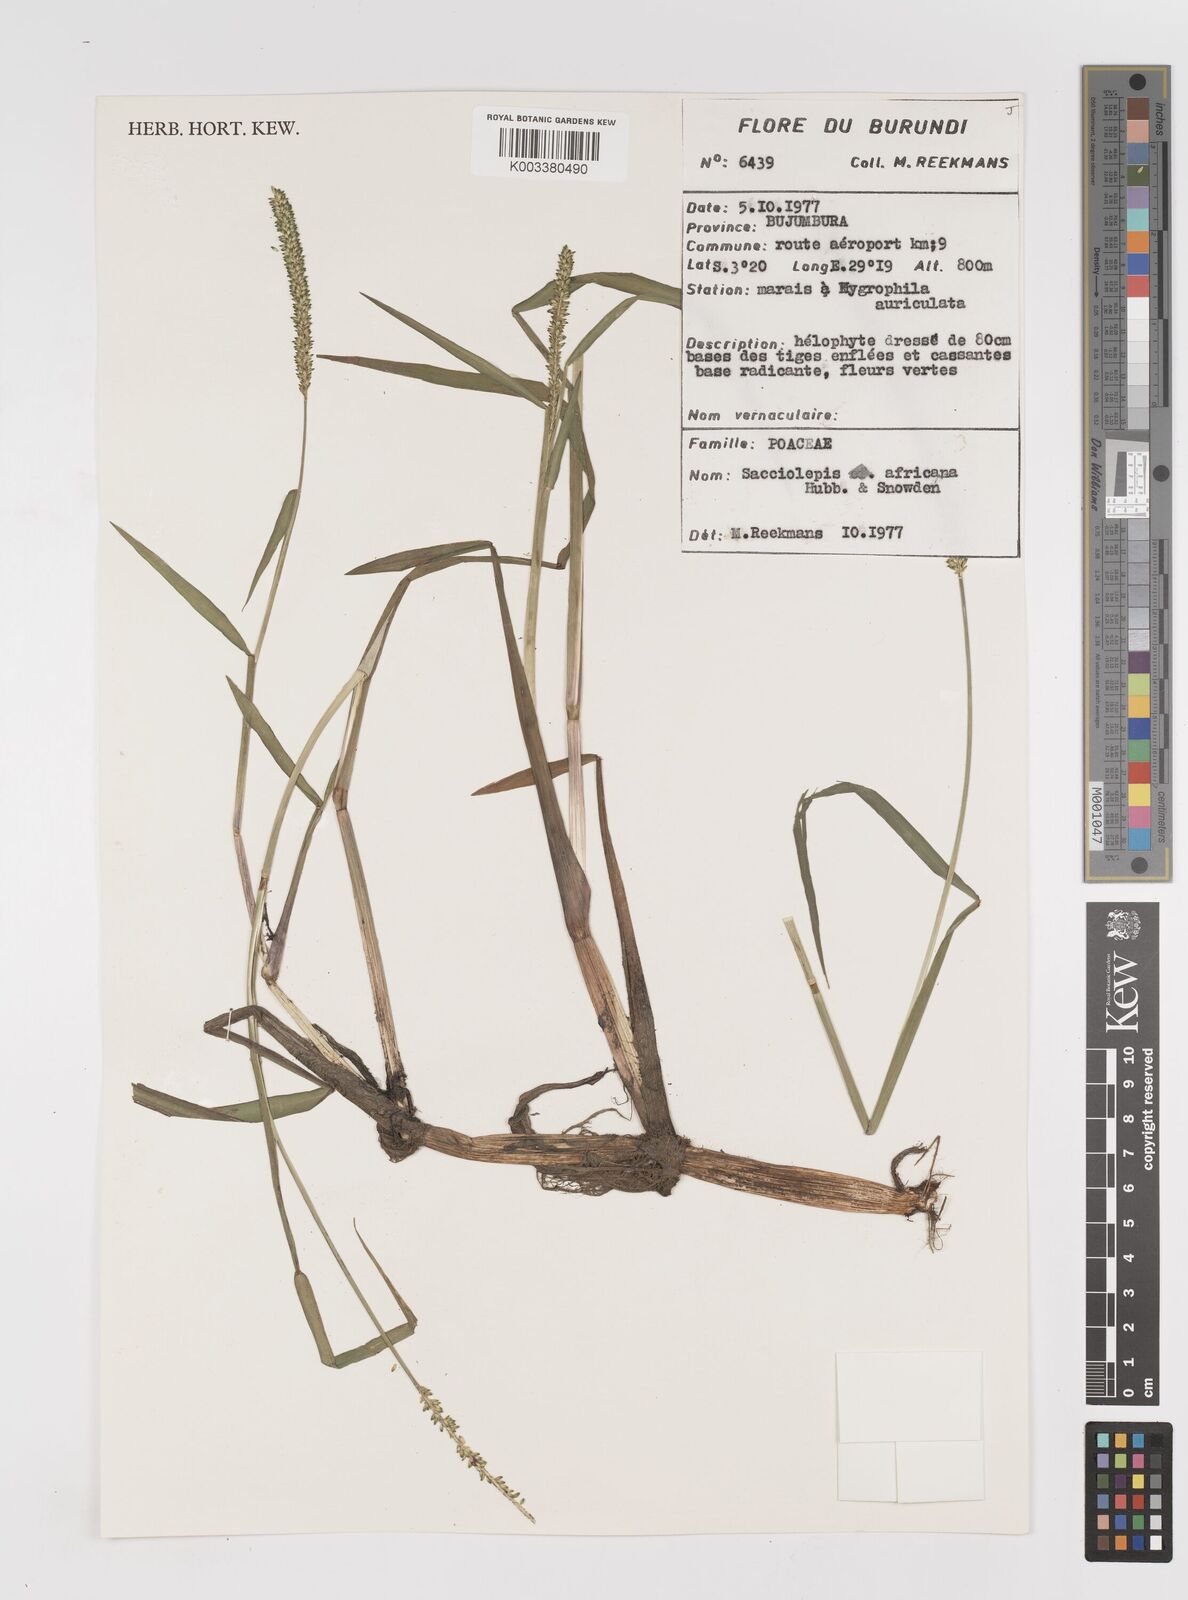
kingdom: Plantae
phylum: Tracheophyta
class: Liliopsida
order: Poales
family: Poaceae
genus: Sacciolepis
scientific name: Sacciolepis africana
